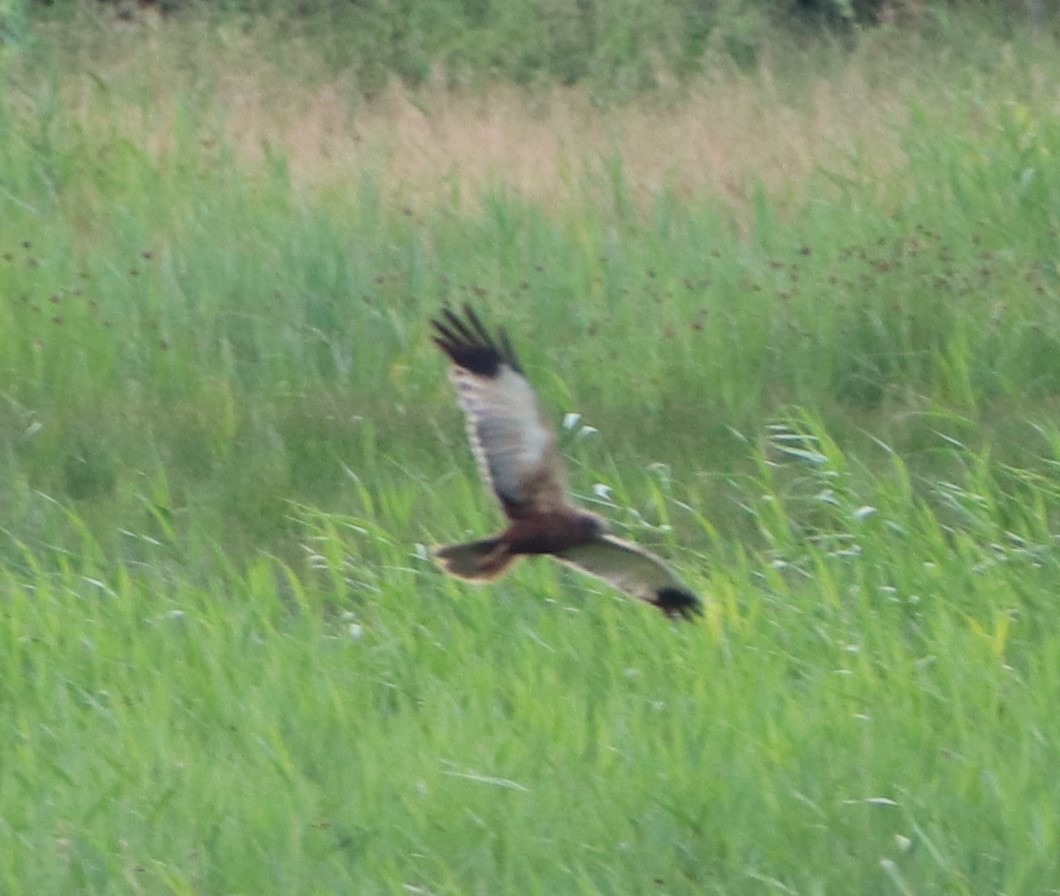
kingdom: Animalia
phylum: Chordata
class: Aves
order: Accipitriformes
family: Accipitridae
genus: Circus
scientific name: Circus aeruginosus
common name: Rørhøg
